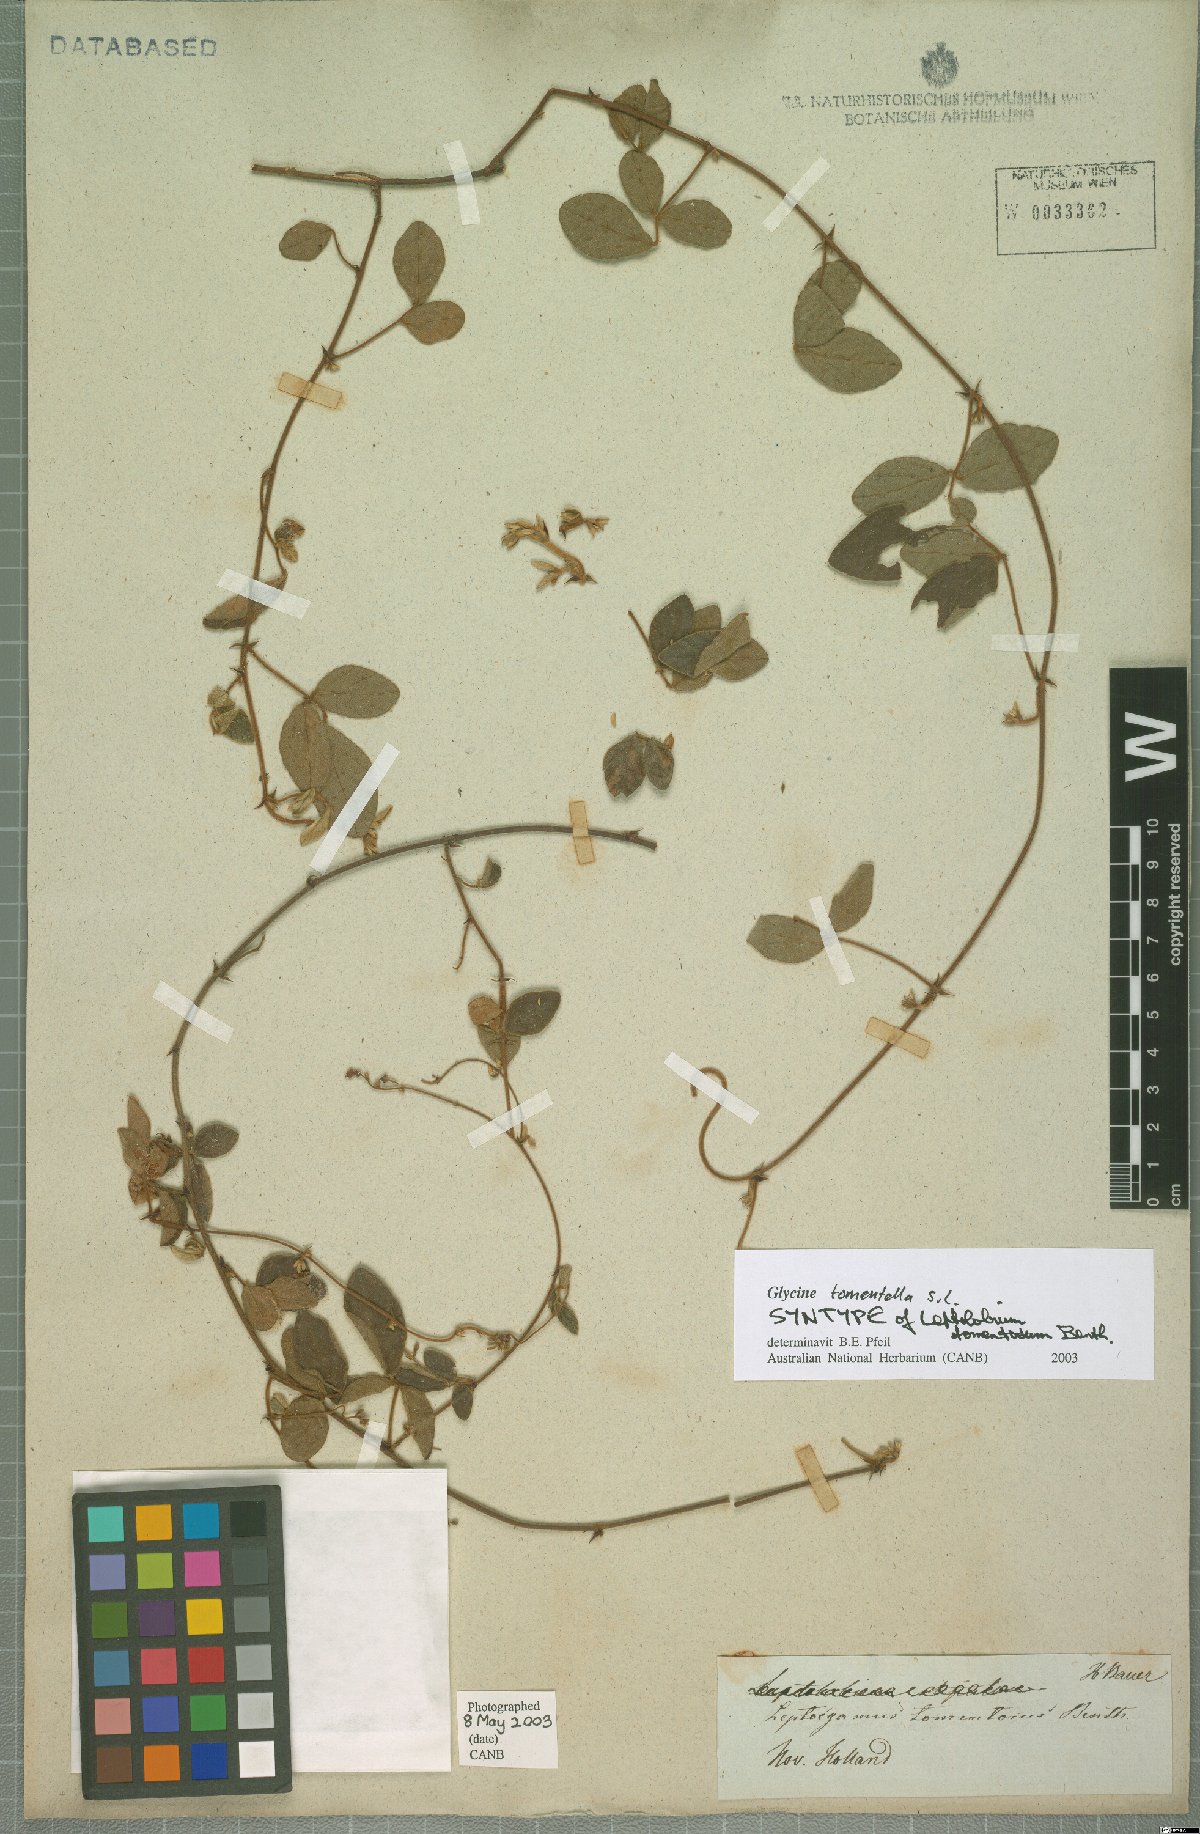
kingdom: Plantae
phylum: Tracheophyta
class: Magnoliopsida
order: Fabales
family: Fabaceae
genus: Glycine
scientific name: Glycine tomentella
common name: Hairy glycine
